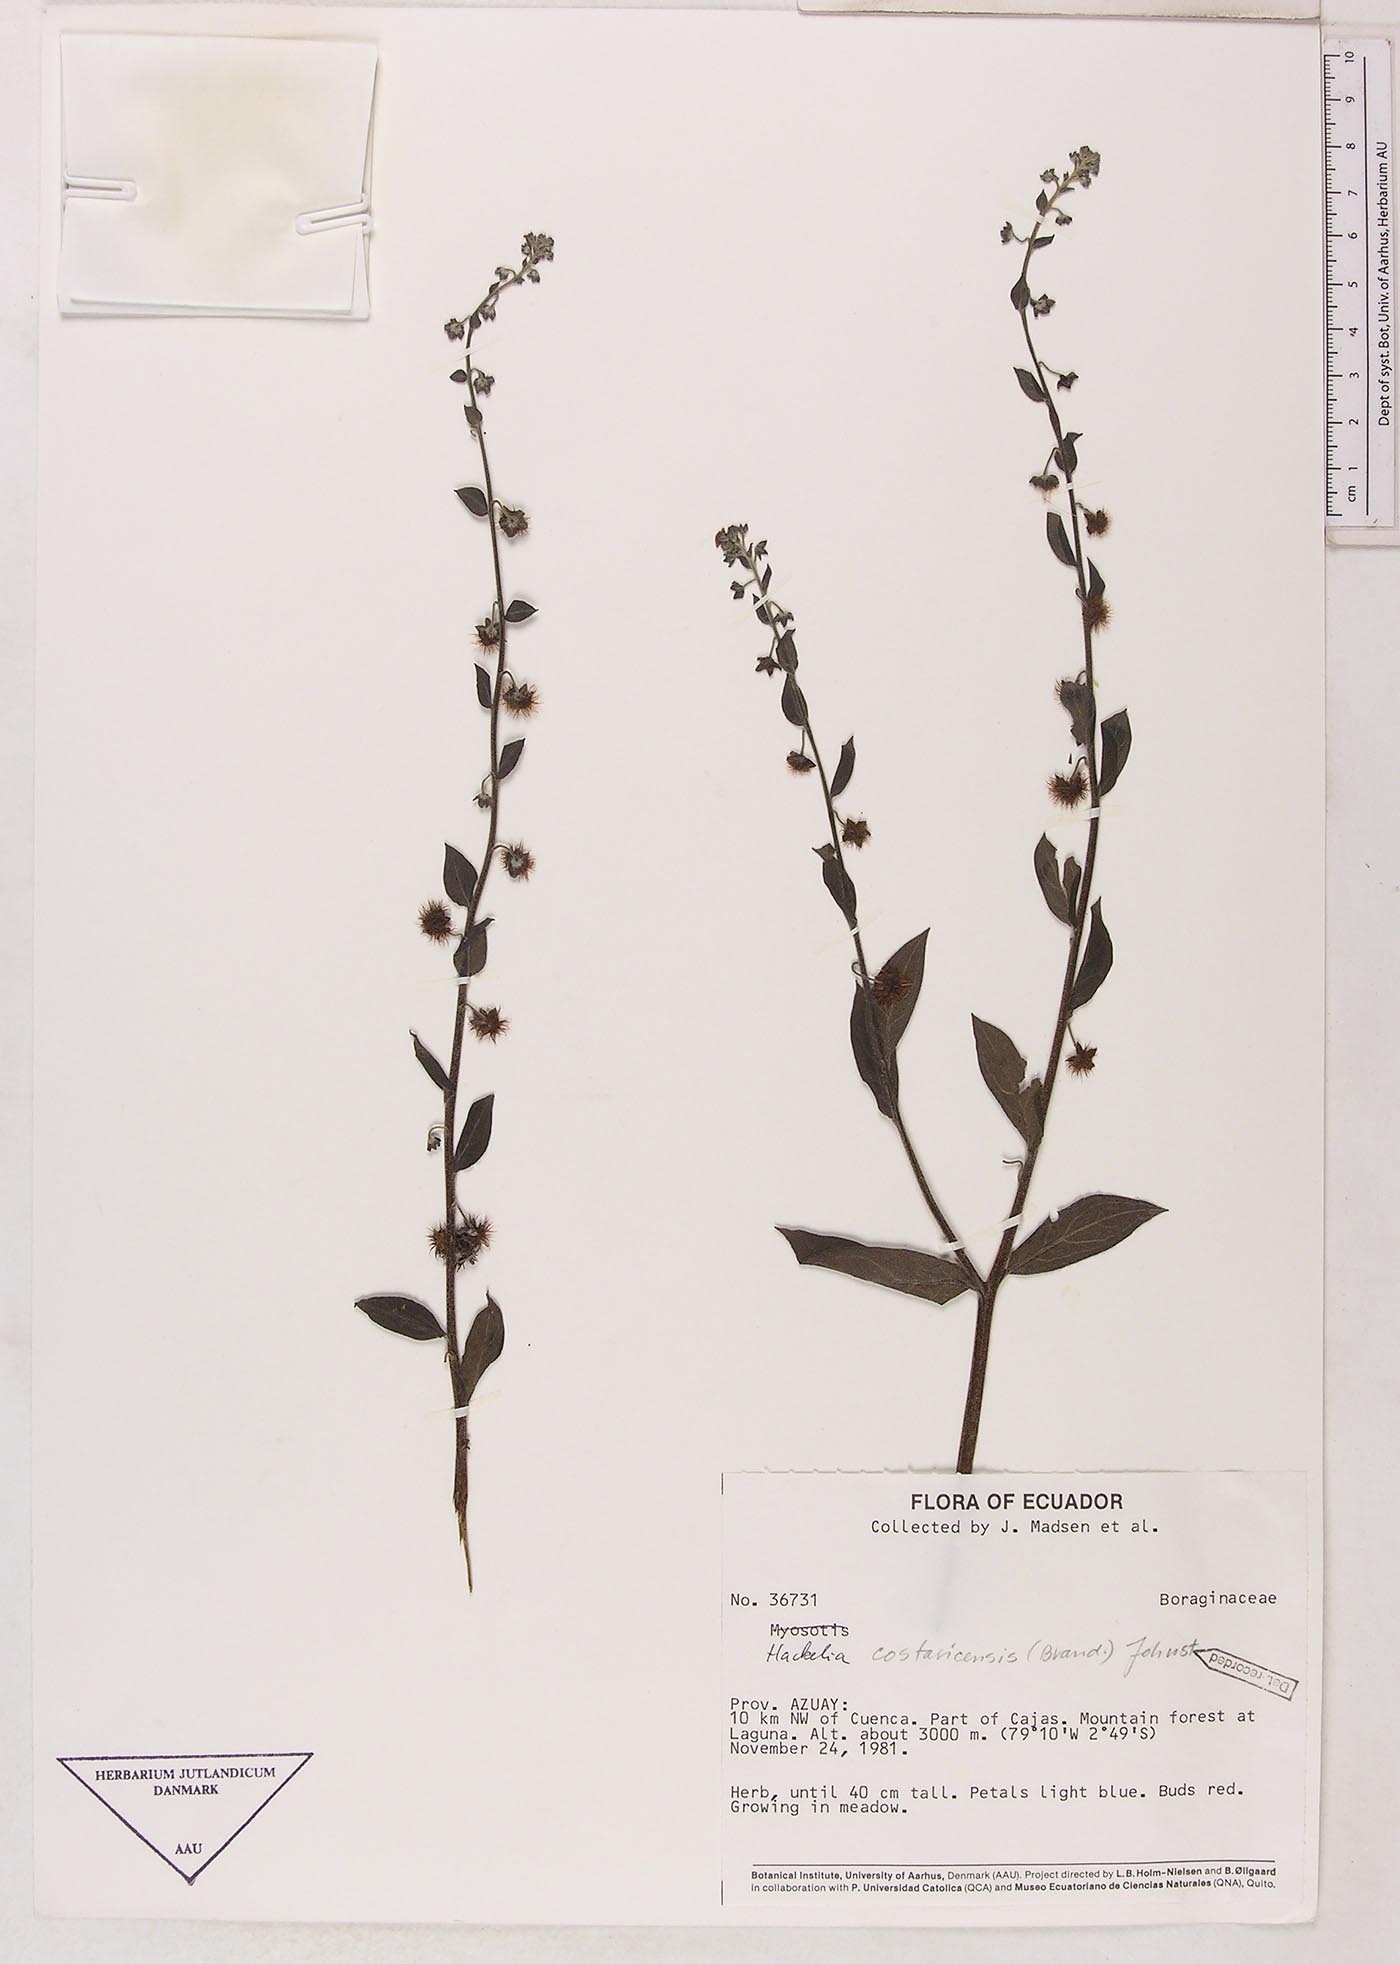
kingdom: Plantae
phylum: Tracheophyta
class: Magnoliopsida
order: Boraginales
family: Boraginaceae
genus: Hackelia
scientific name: Hackelia revoluta
